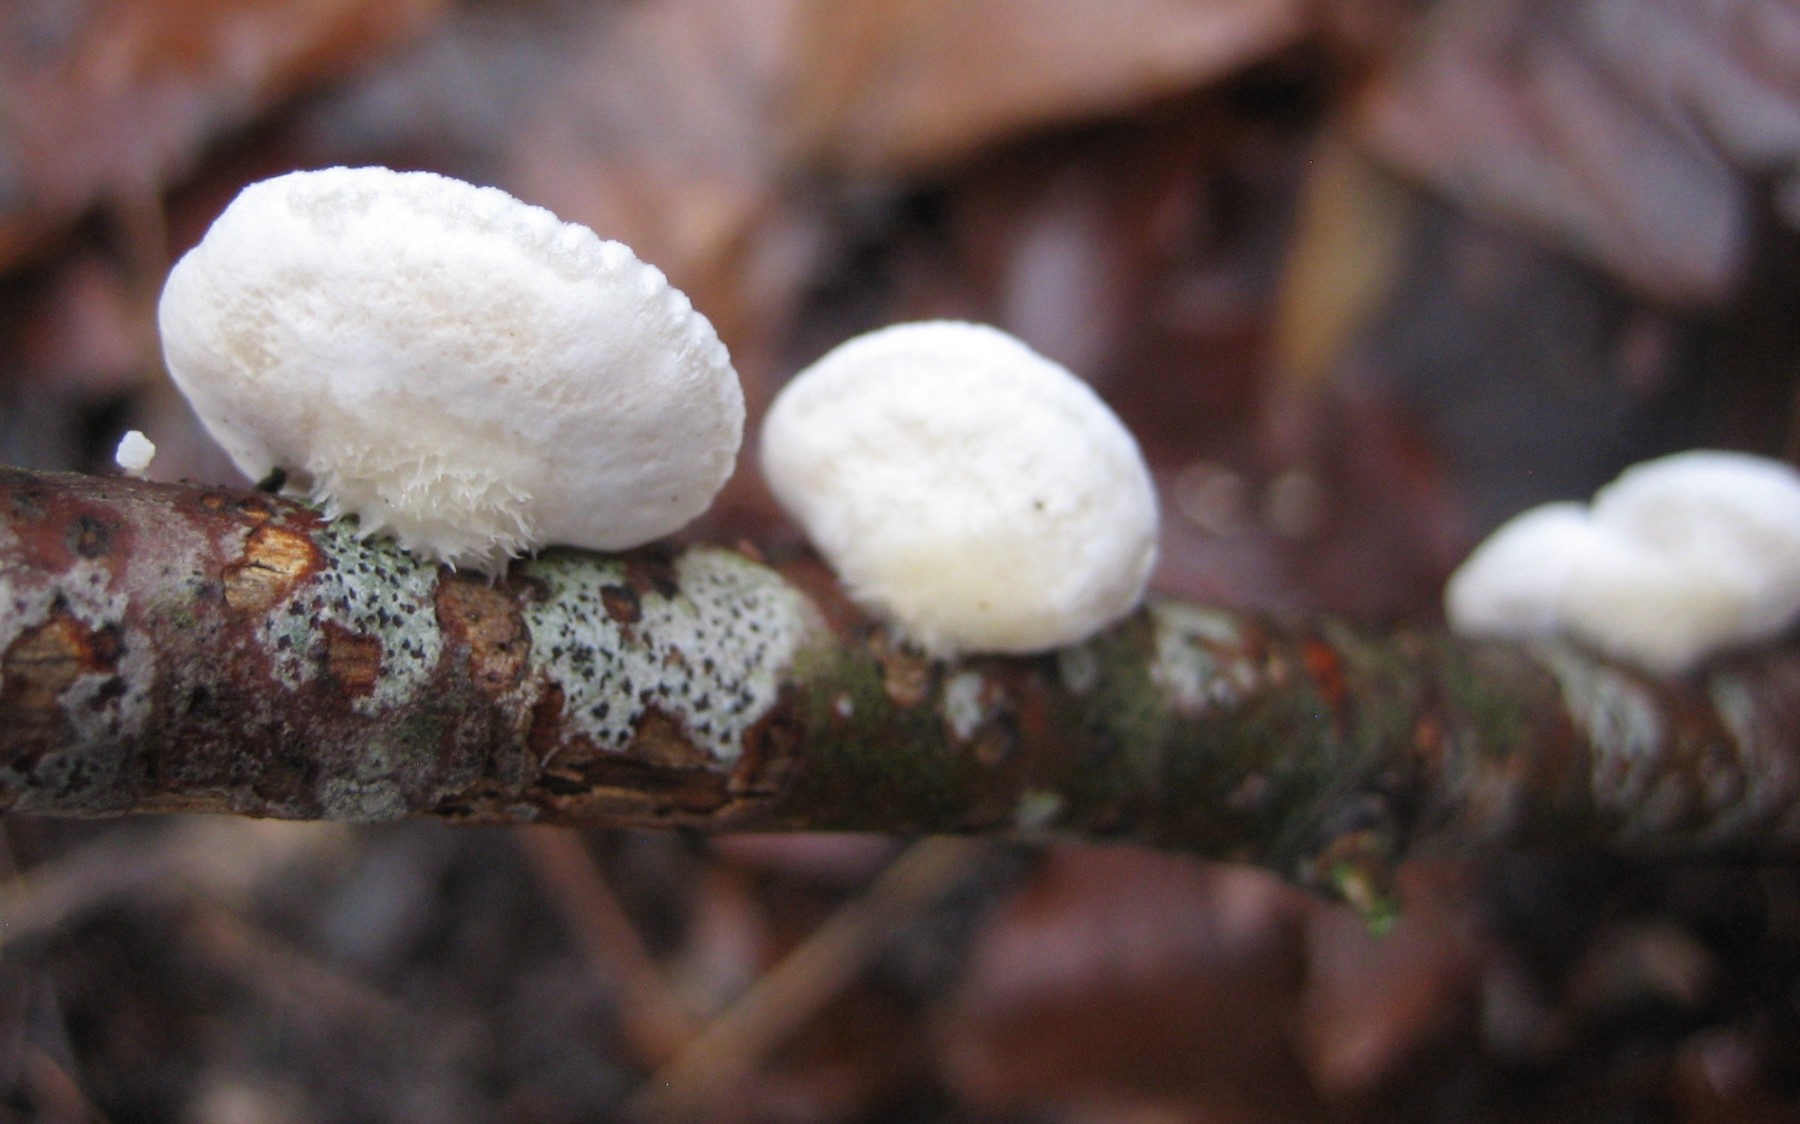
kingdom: Fungi
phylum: Basidiomycota
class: Agaricomycetes
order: Agaricales
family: Crepidotaceae
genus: Crepidotus
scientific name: Crepidotus
